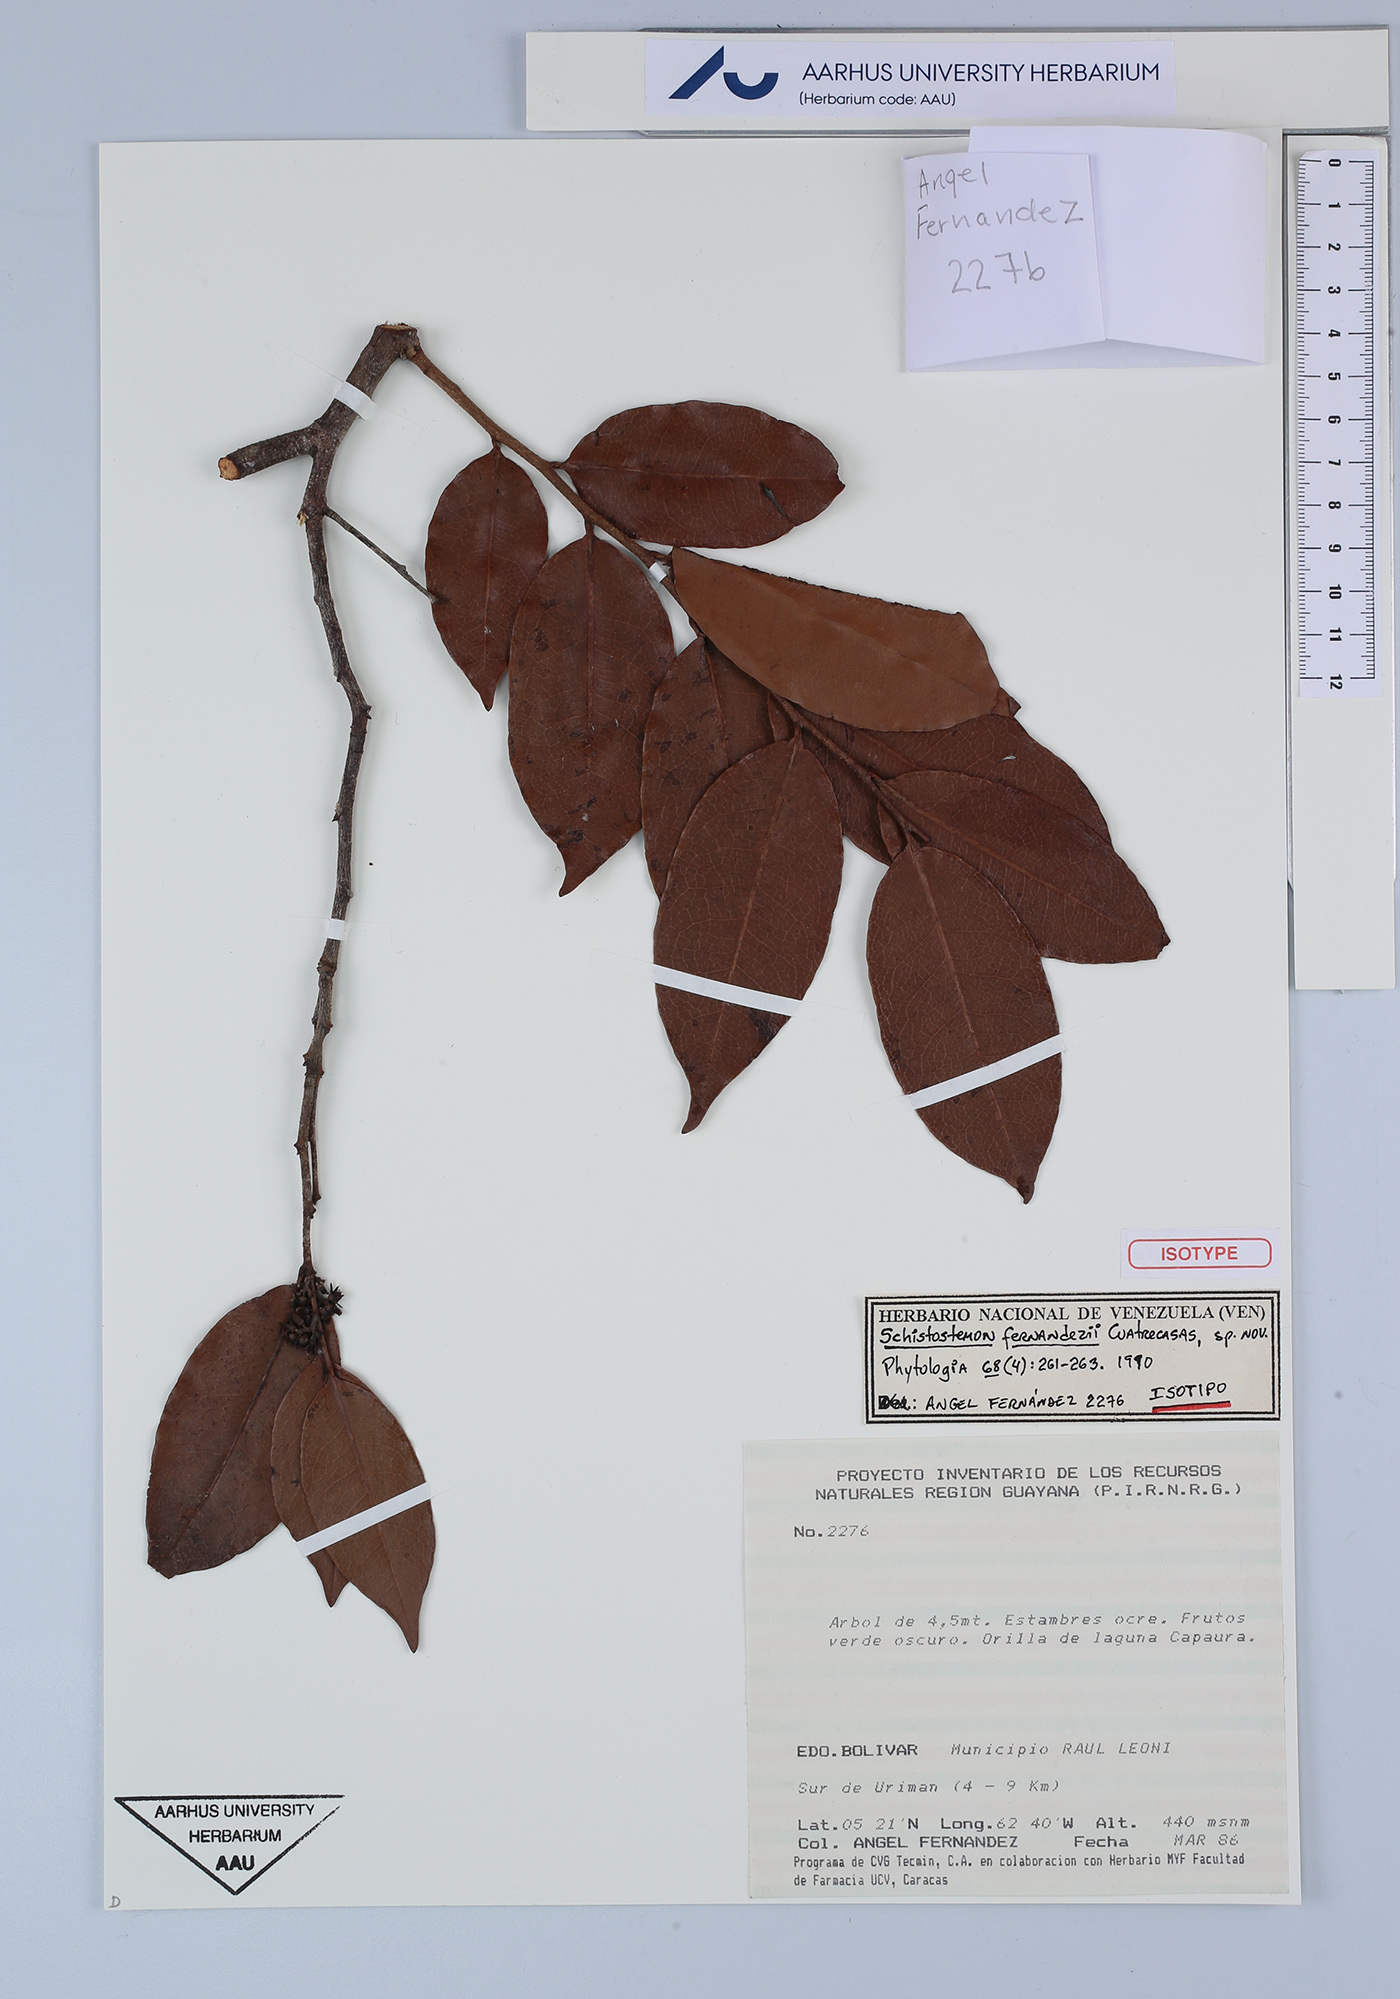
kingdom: Plantae
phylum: Tracheophyta
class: Magnoliopsida
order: Malpighiales
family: Humiriaceae
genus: Schistostemon
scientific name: Schistostemon fernandezii
